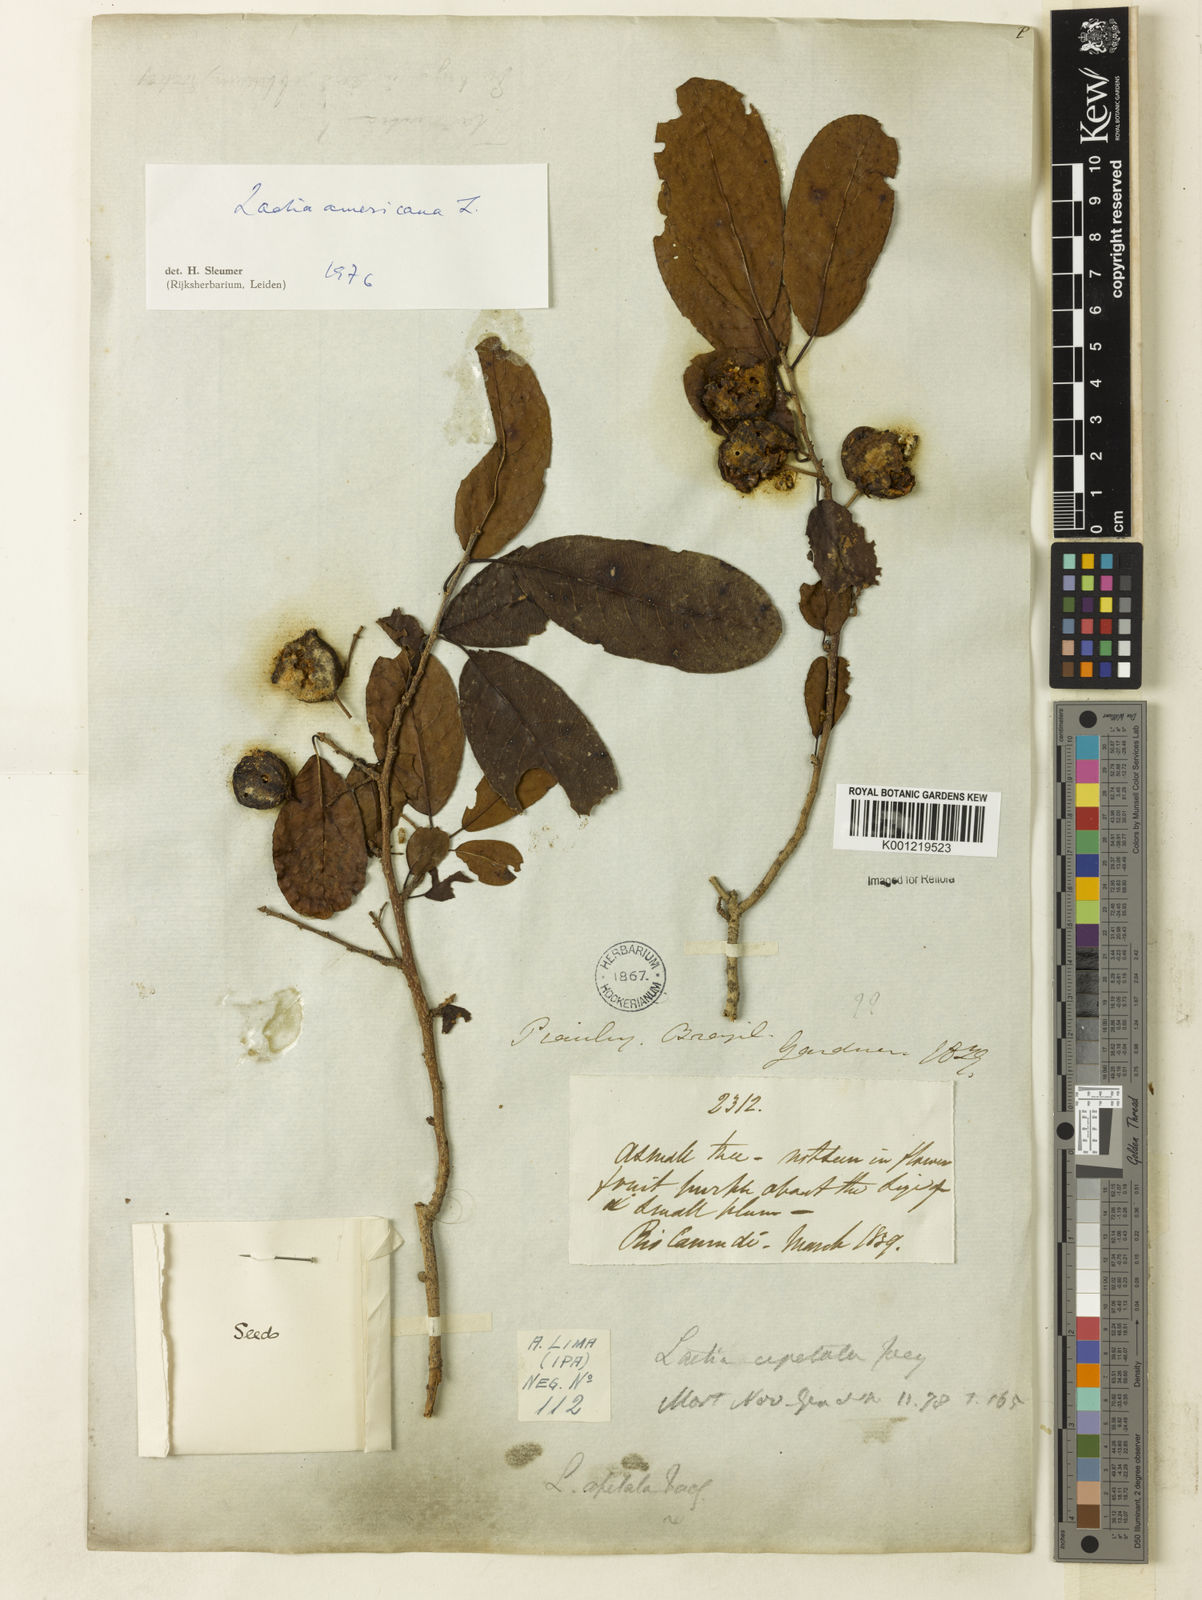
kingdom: Plantae
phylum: Tracheophyta
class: Magnoliopsida
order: Malpighiales
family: Salicaceae
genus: Casearia
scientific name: Casearia americana
